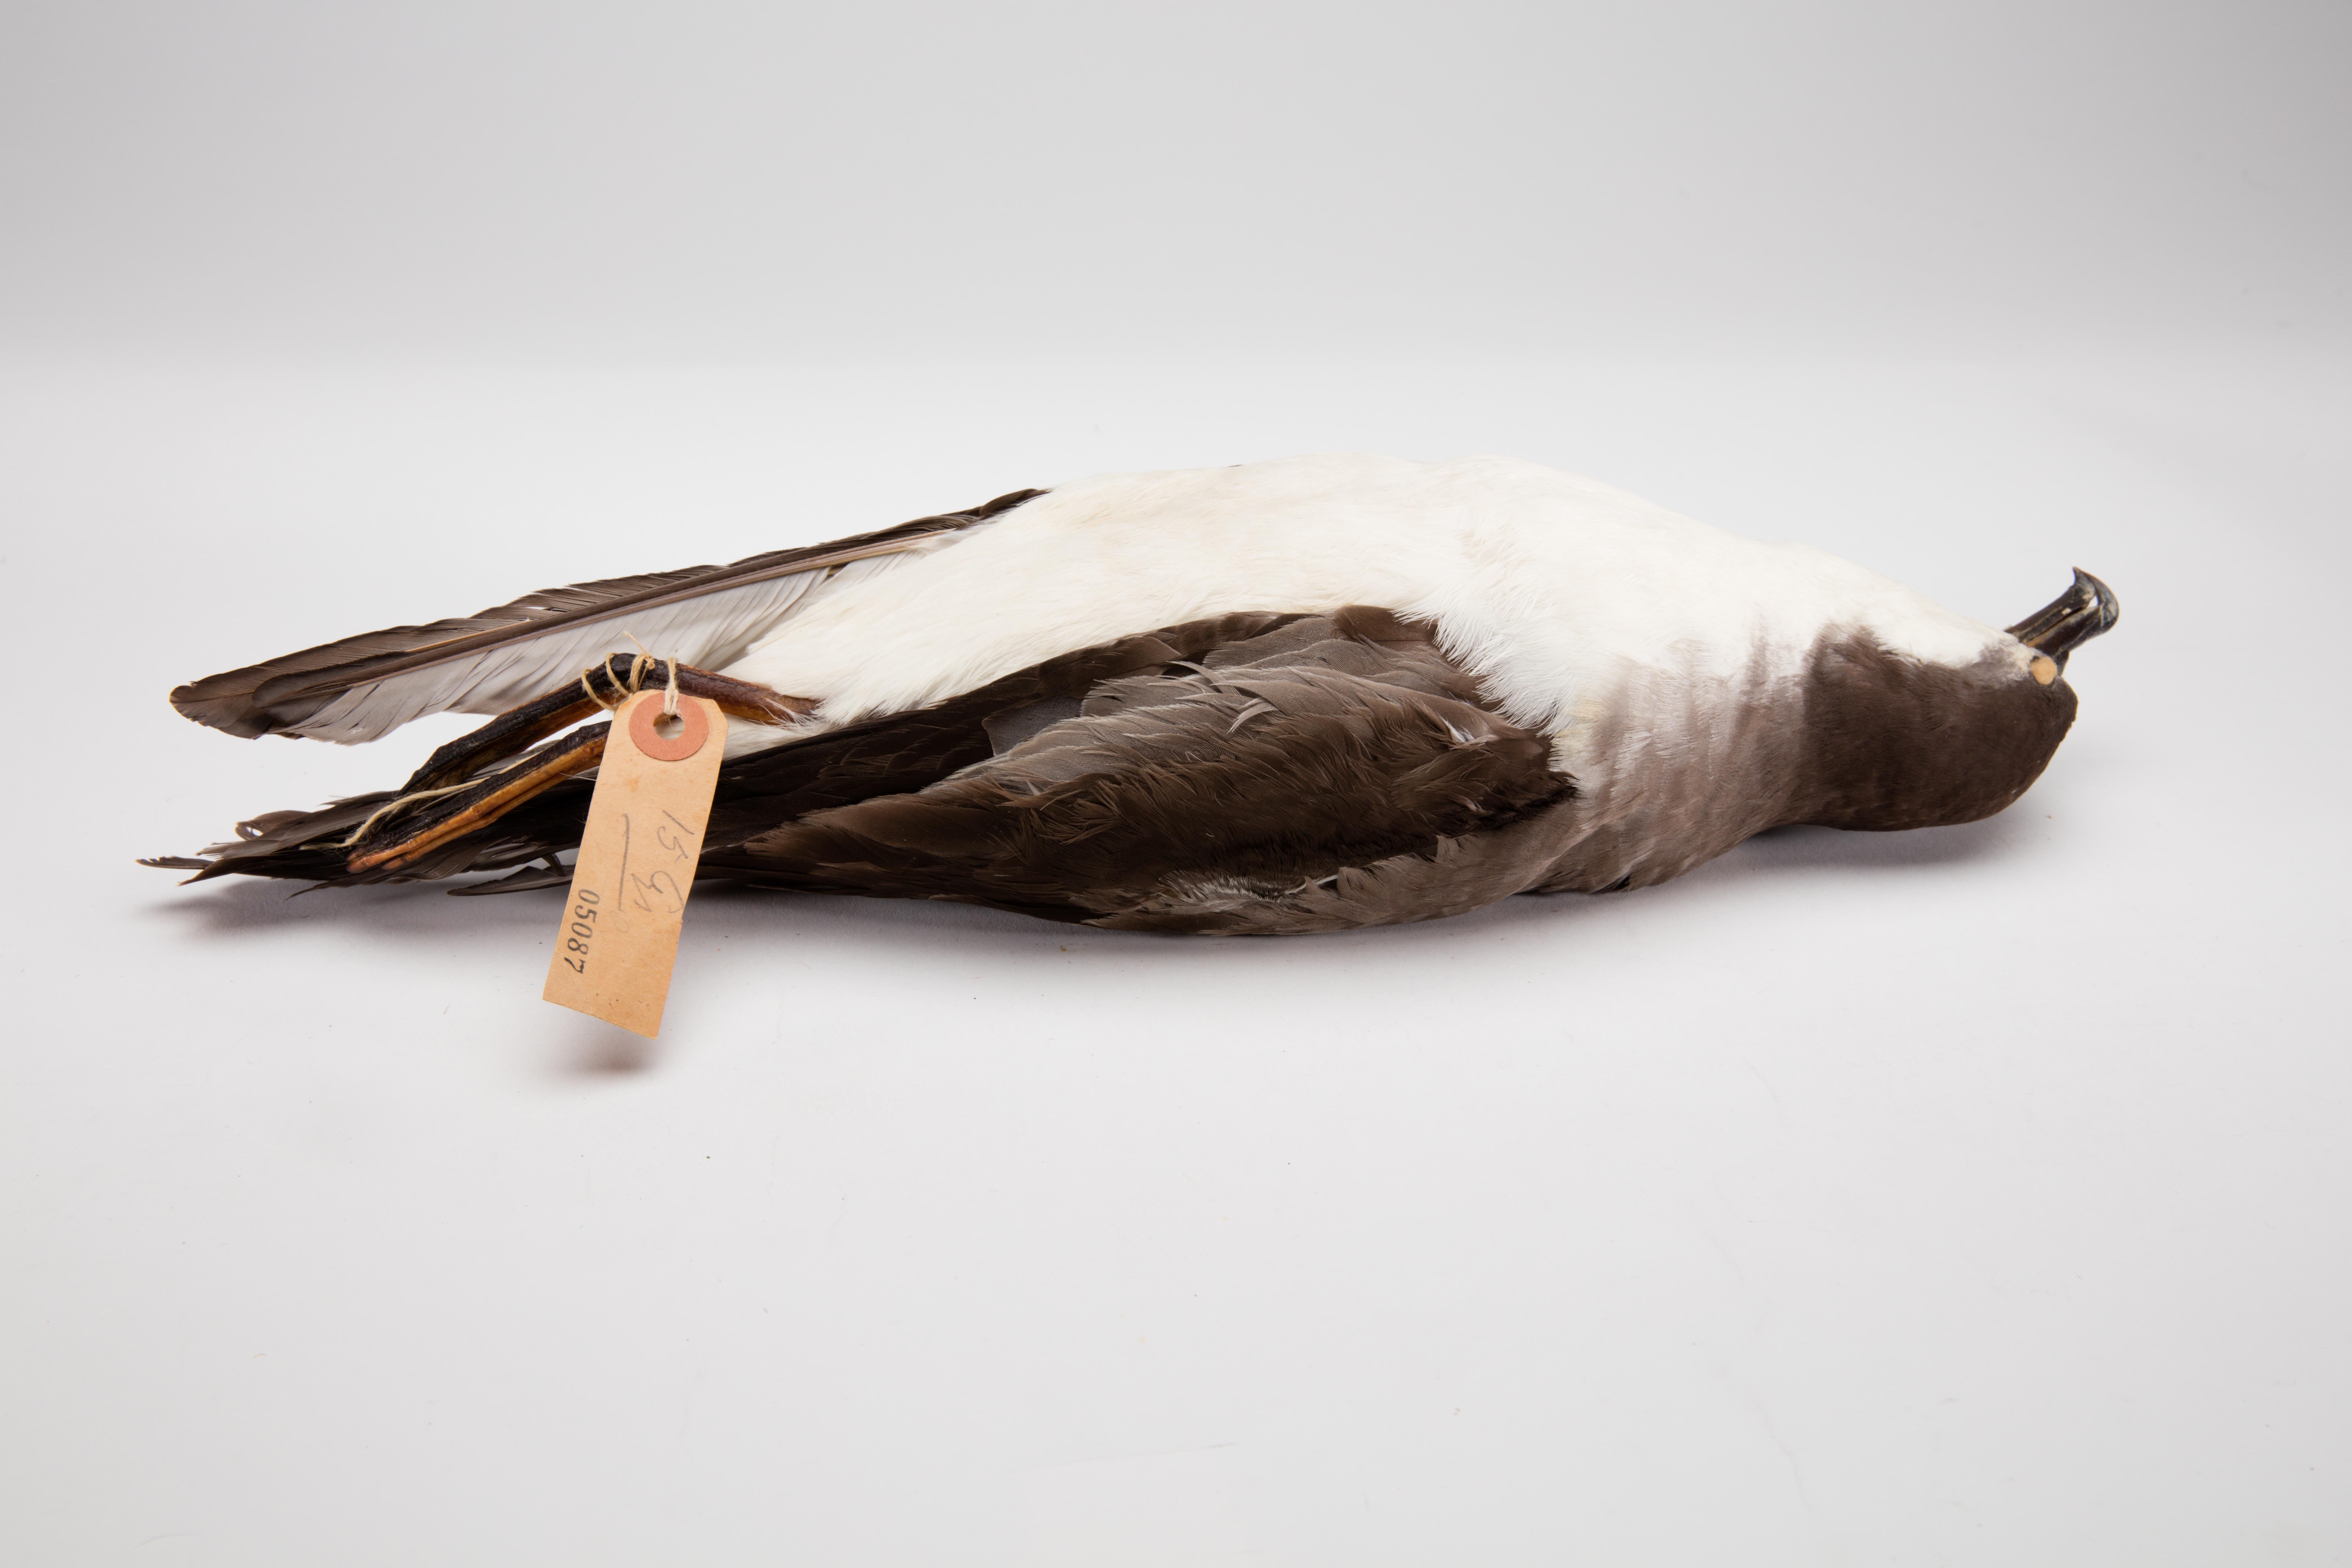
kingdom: Animalia
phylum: Chordata
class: Aves
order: Procellariiformes
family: Procellariidae
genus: Ardenna
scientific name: Ardenna
